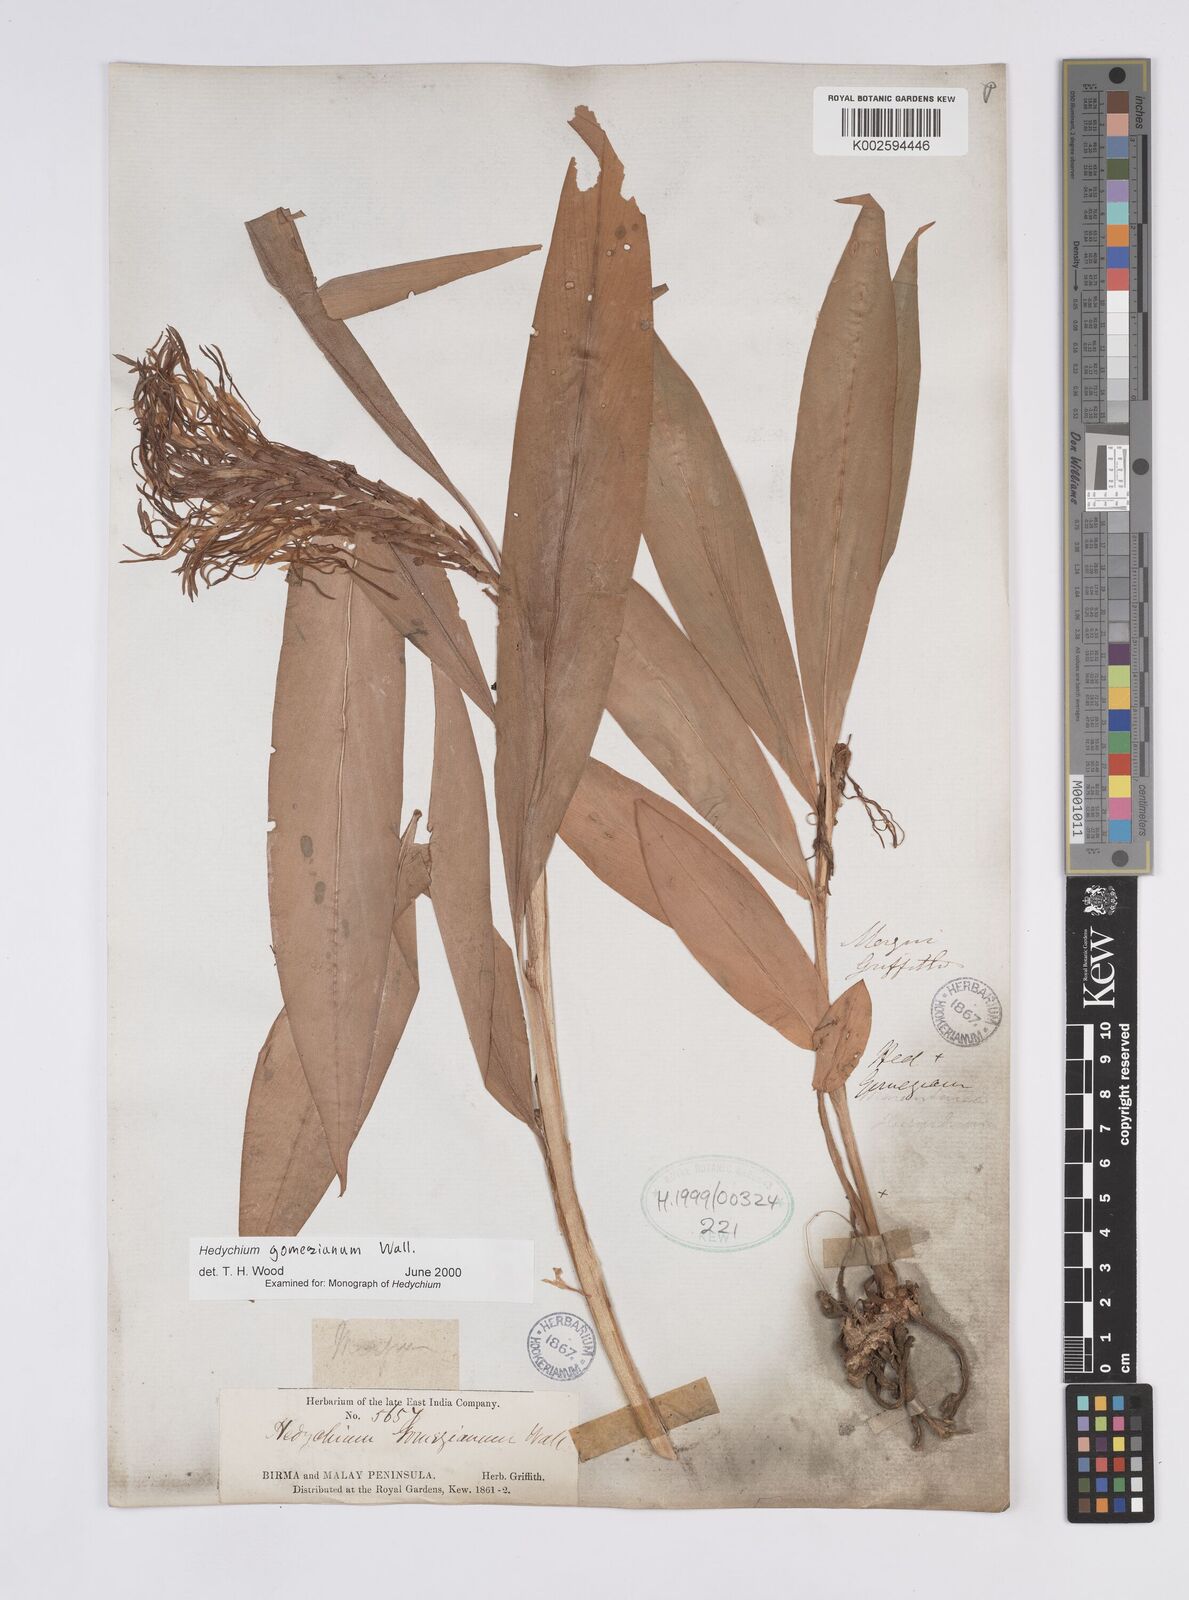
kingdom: Plantae
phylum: Tracheophyta
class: Liliopsida
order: Zingiberales
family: Zingiberaceae
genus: Hedychium
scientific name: Hedychium gomezianum
